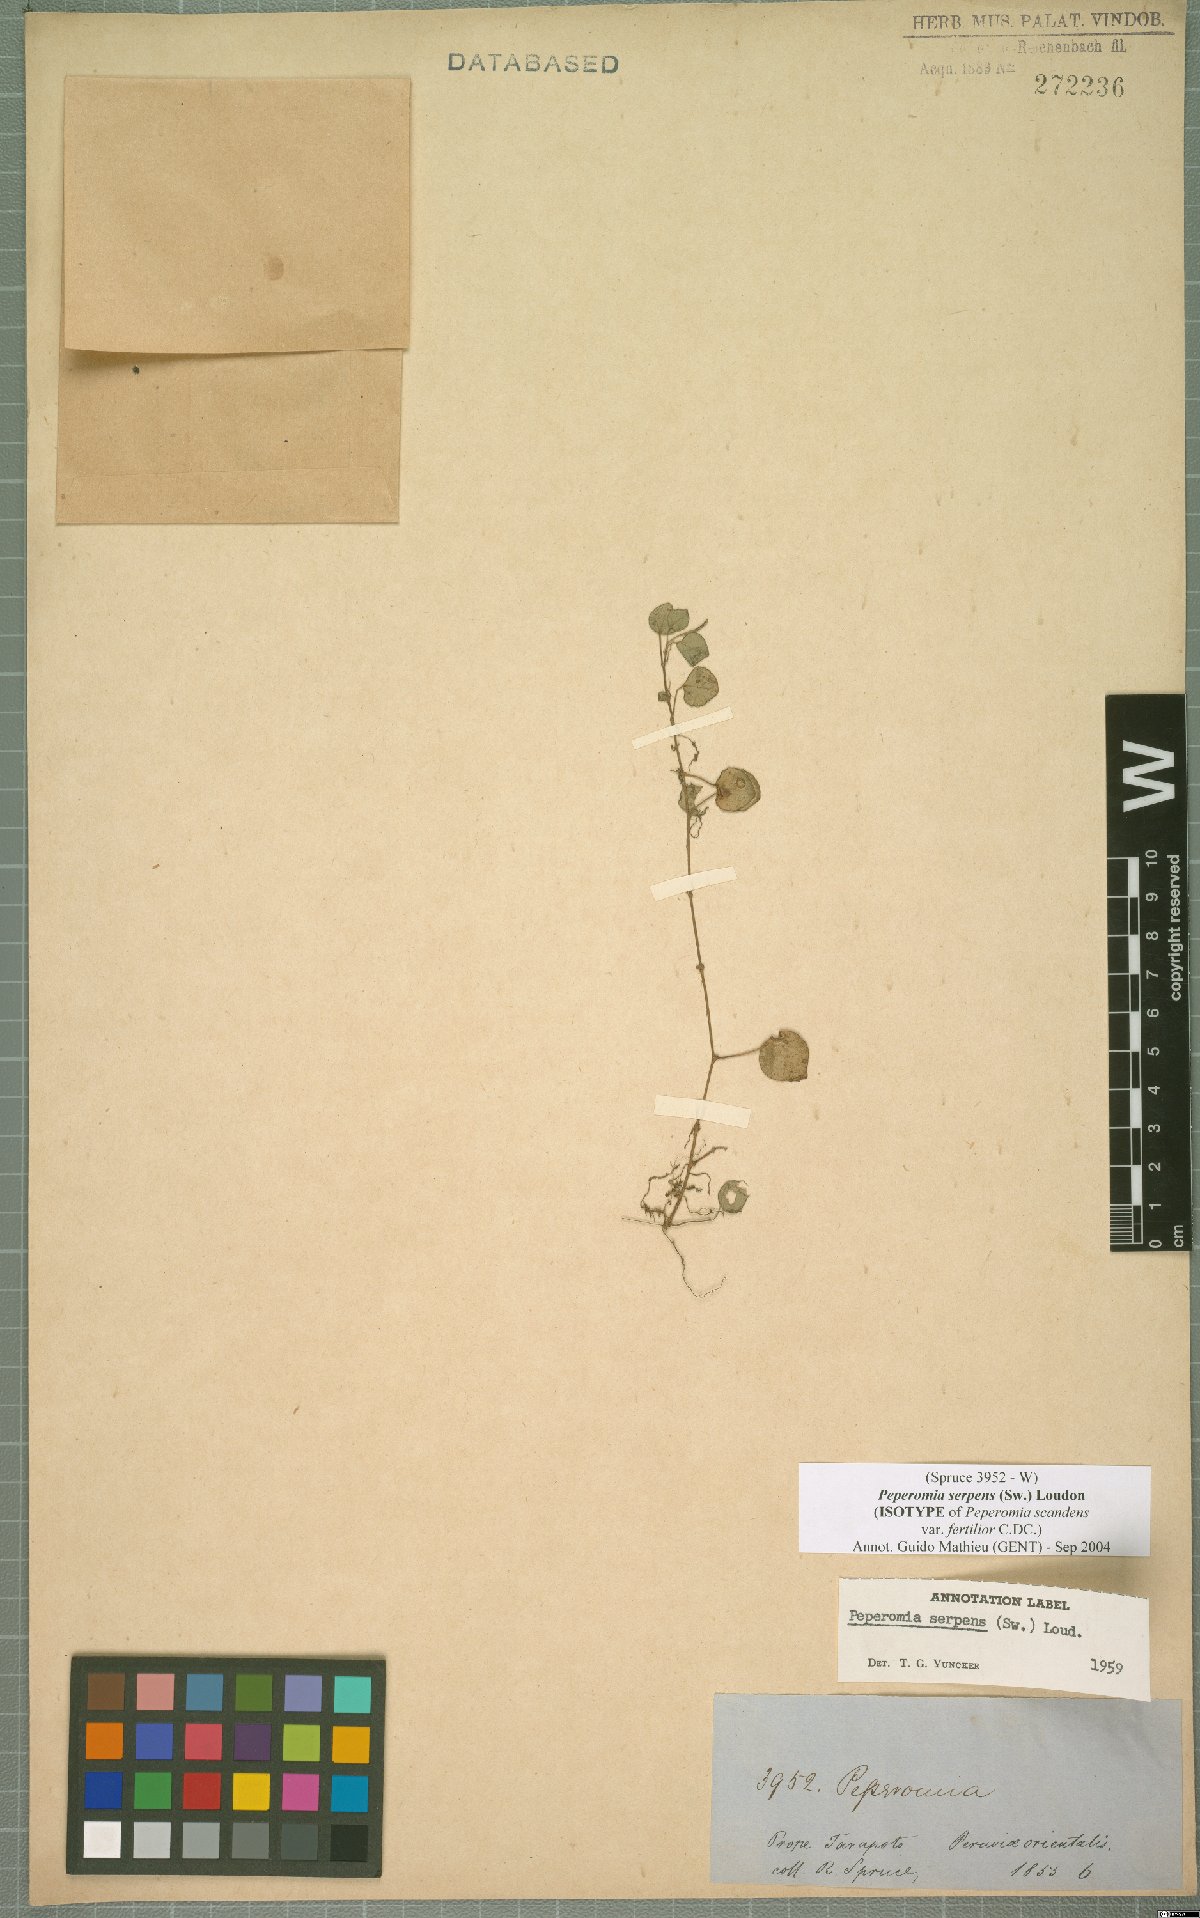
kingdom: Plantae
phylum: Tracheophyta
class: Magnoliopsida
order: Piperales
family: Piperaceae
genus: Peperomia
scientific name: Peperomia serpens
